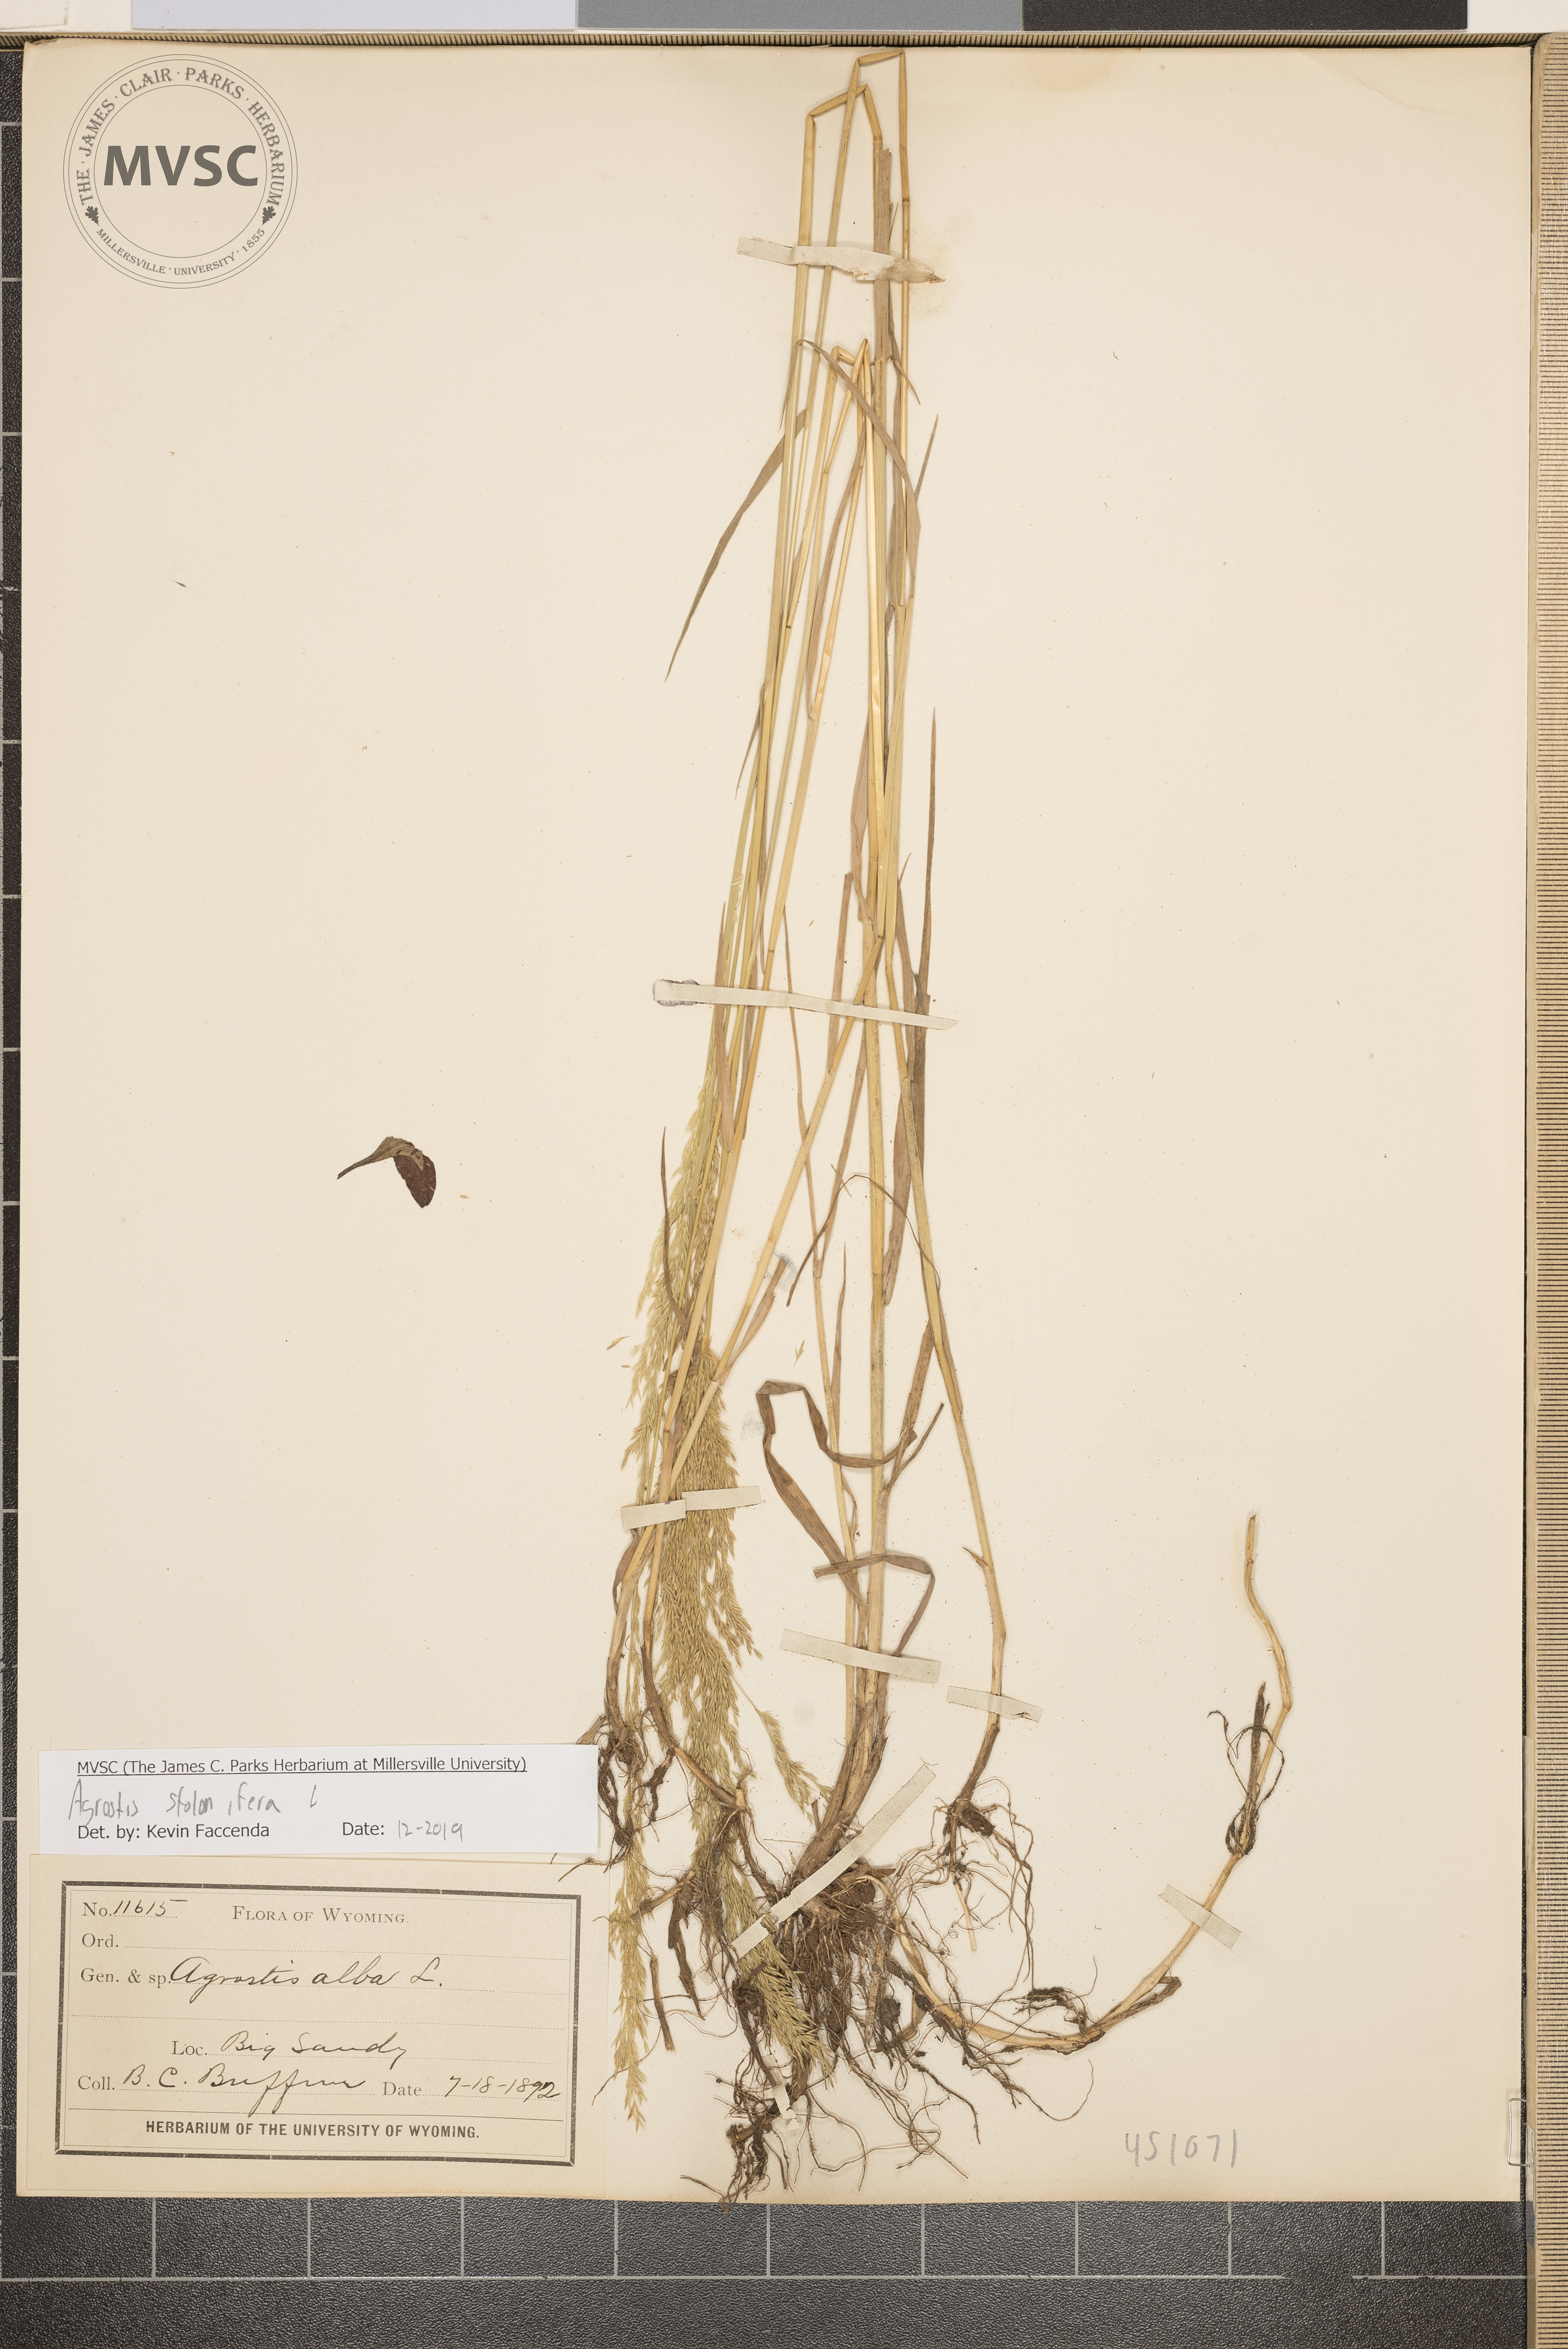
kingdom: Plantae
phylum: Tracheophyta
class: Liliopsida
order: Poales
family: Poaceae
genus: Agrostis
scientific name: Agrostis stolonifera
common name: Creeping bentgrass
